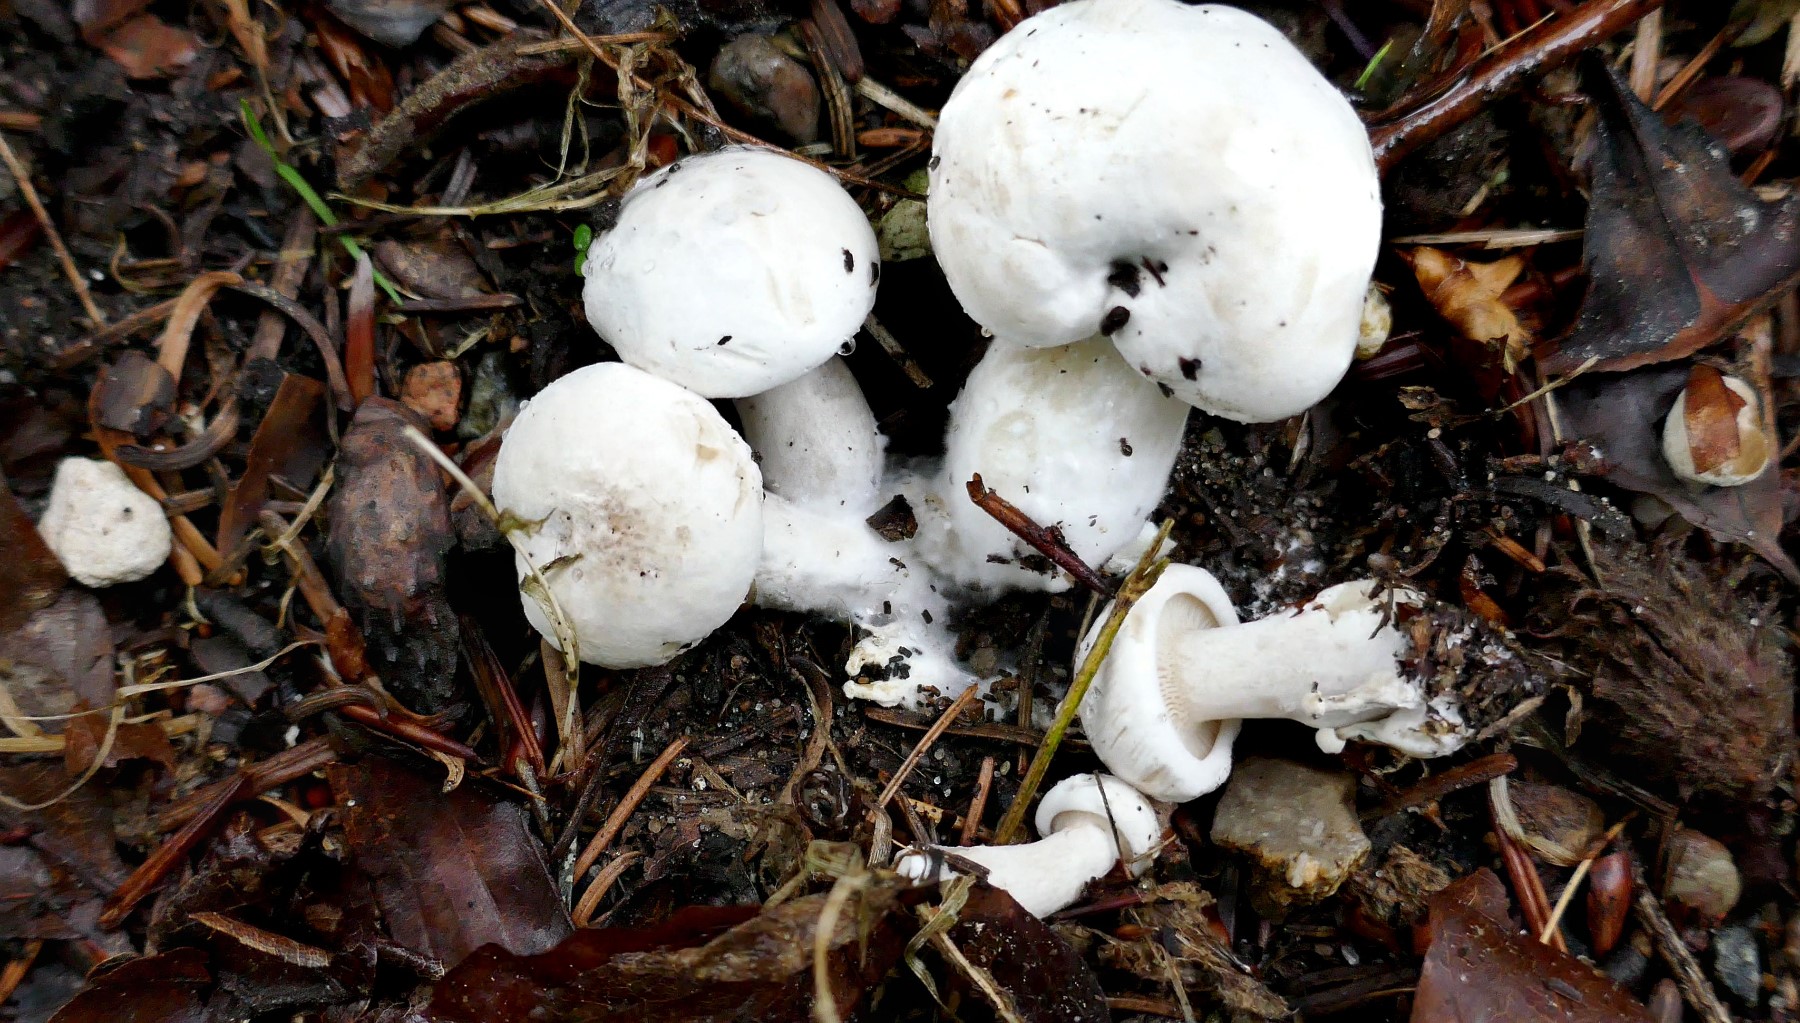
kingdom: Fungi
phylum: Basidiomycota
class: Agaricomycetes
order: Agaricales
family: Entolomataceae
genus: Clitopilus
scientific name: Clitopilus prunulus
